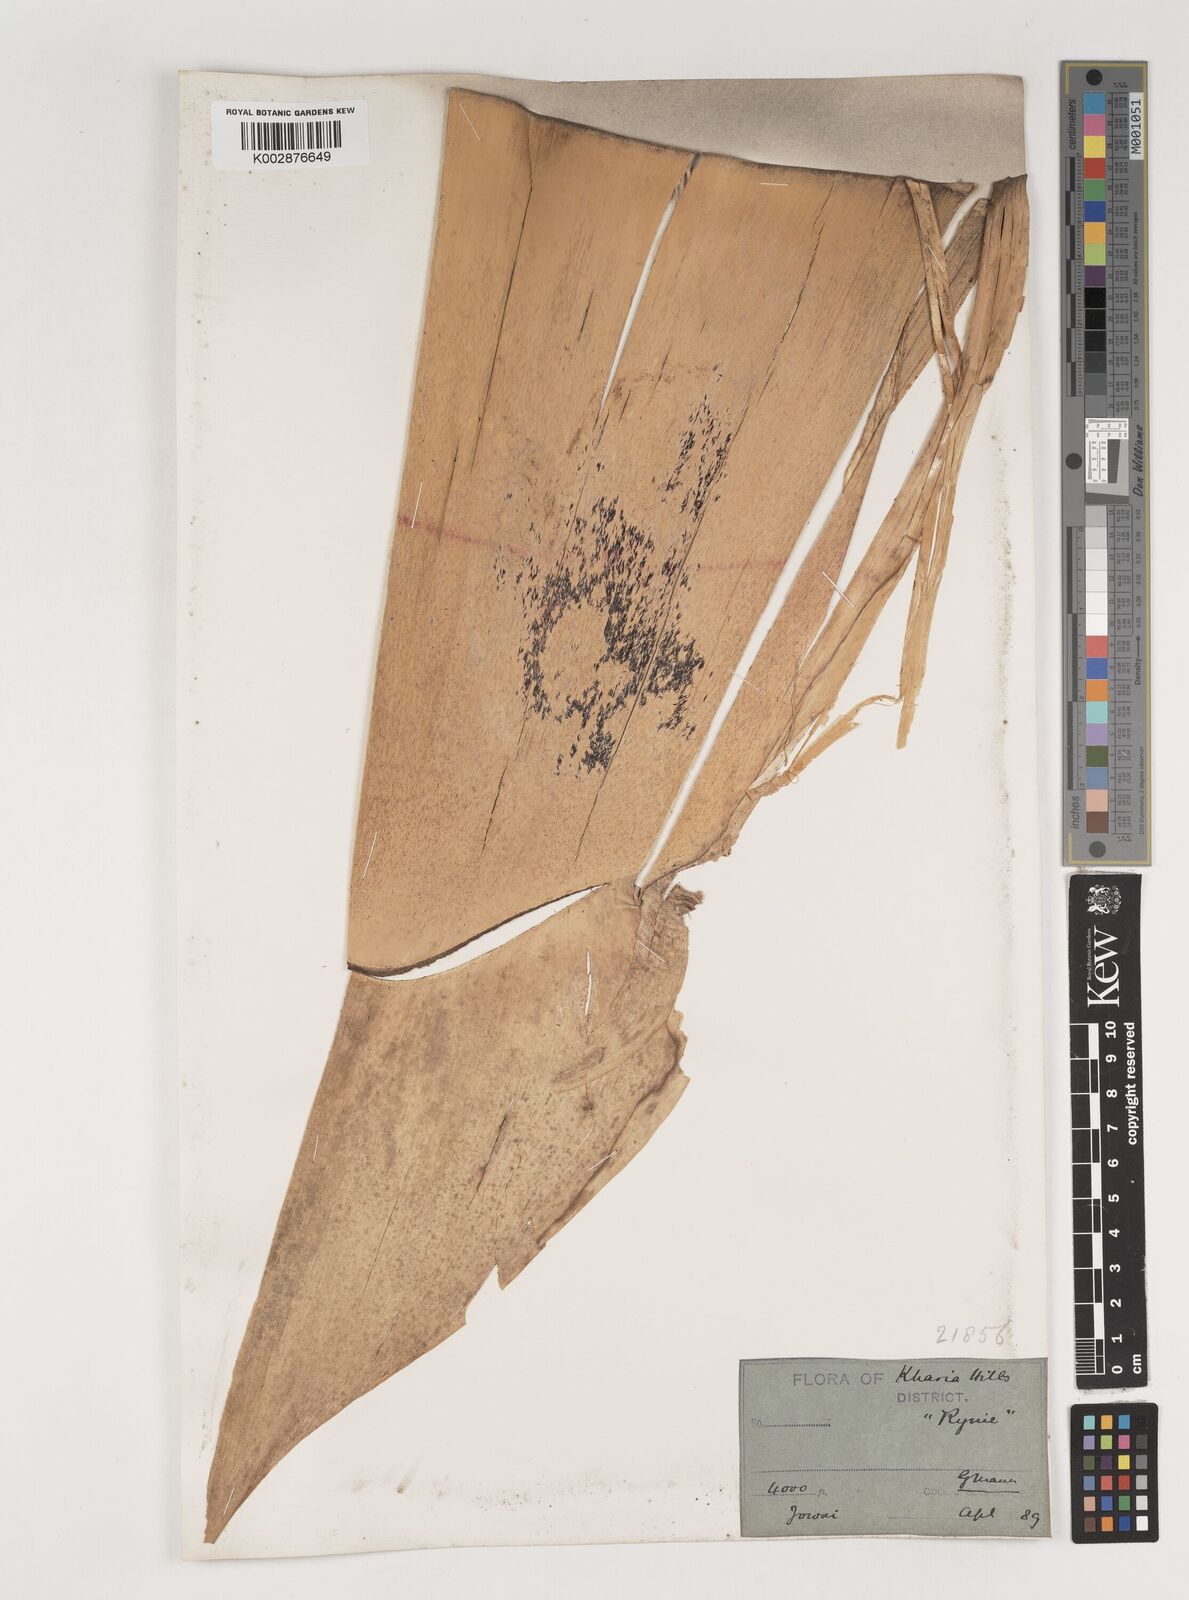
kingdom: Plantae
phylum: Tracheophyta
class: Liliopsida
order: Poales
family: Poaceae
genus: Bambusa
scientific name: Bambusa nutans
